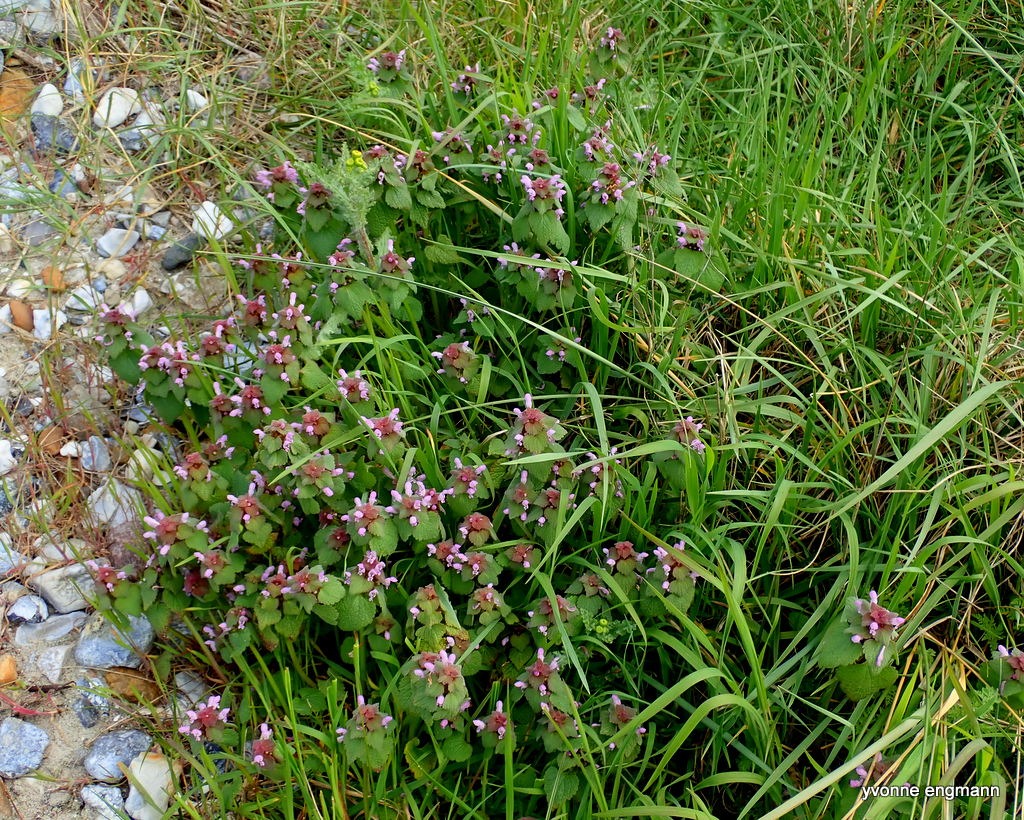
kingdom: Plantae
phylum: Tracheophyta
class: Magnoliopsida
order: Lamiales
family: Lamiaceae
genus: Lamium
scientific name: Lamium purpureum
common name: Rød tvetand
